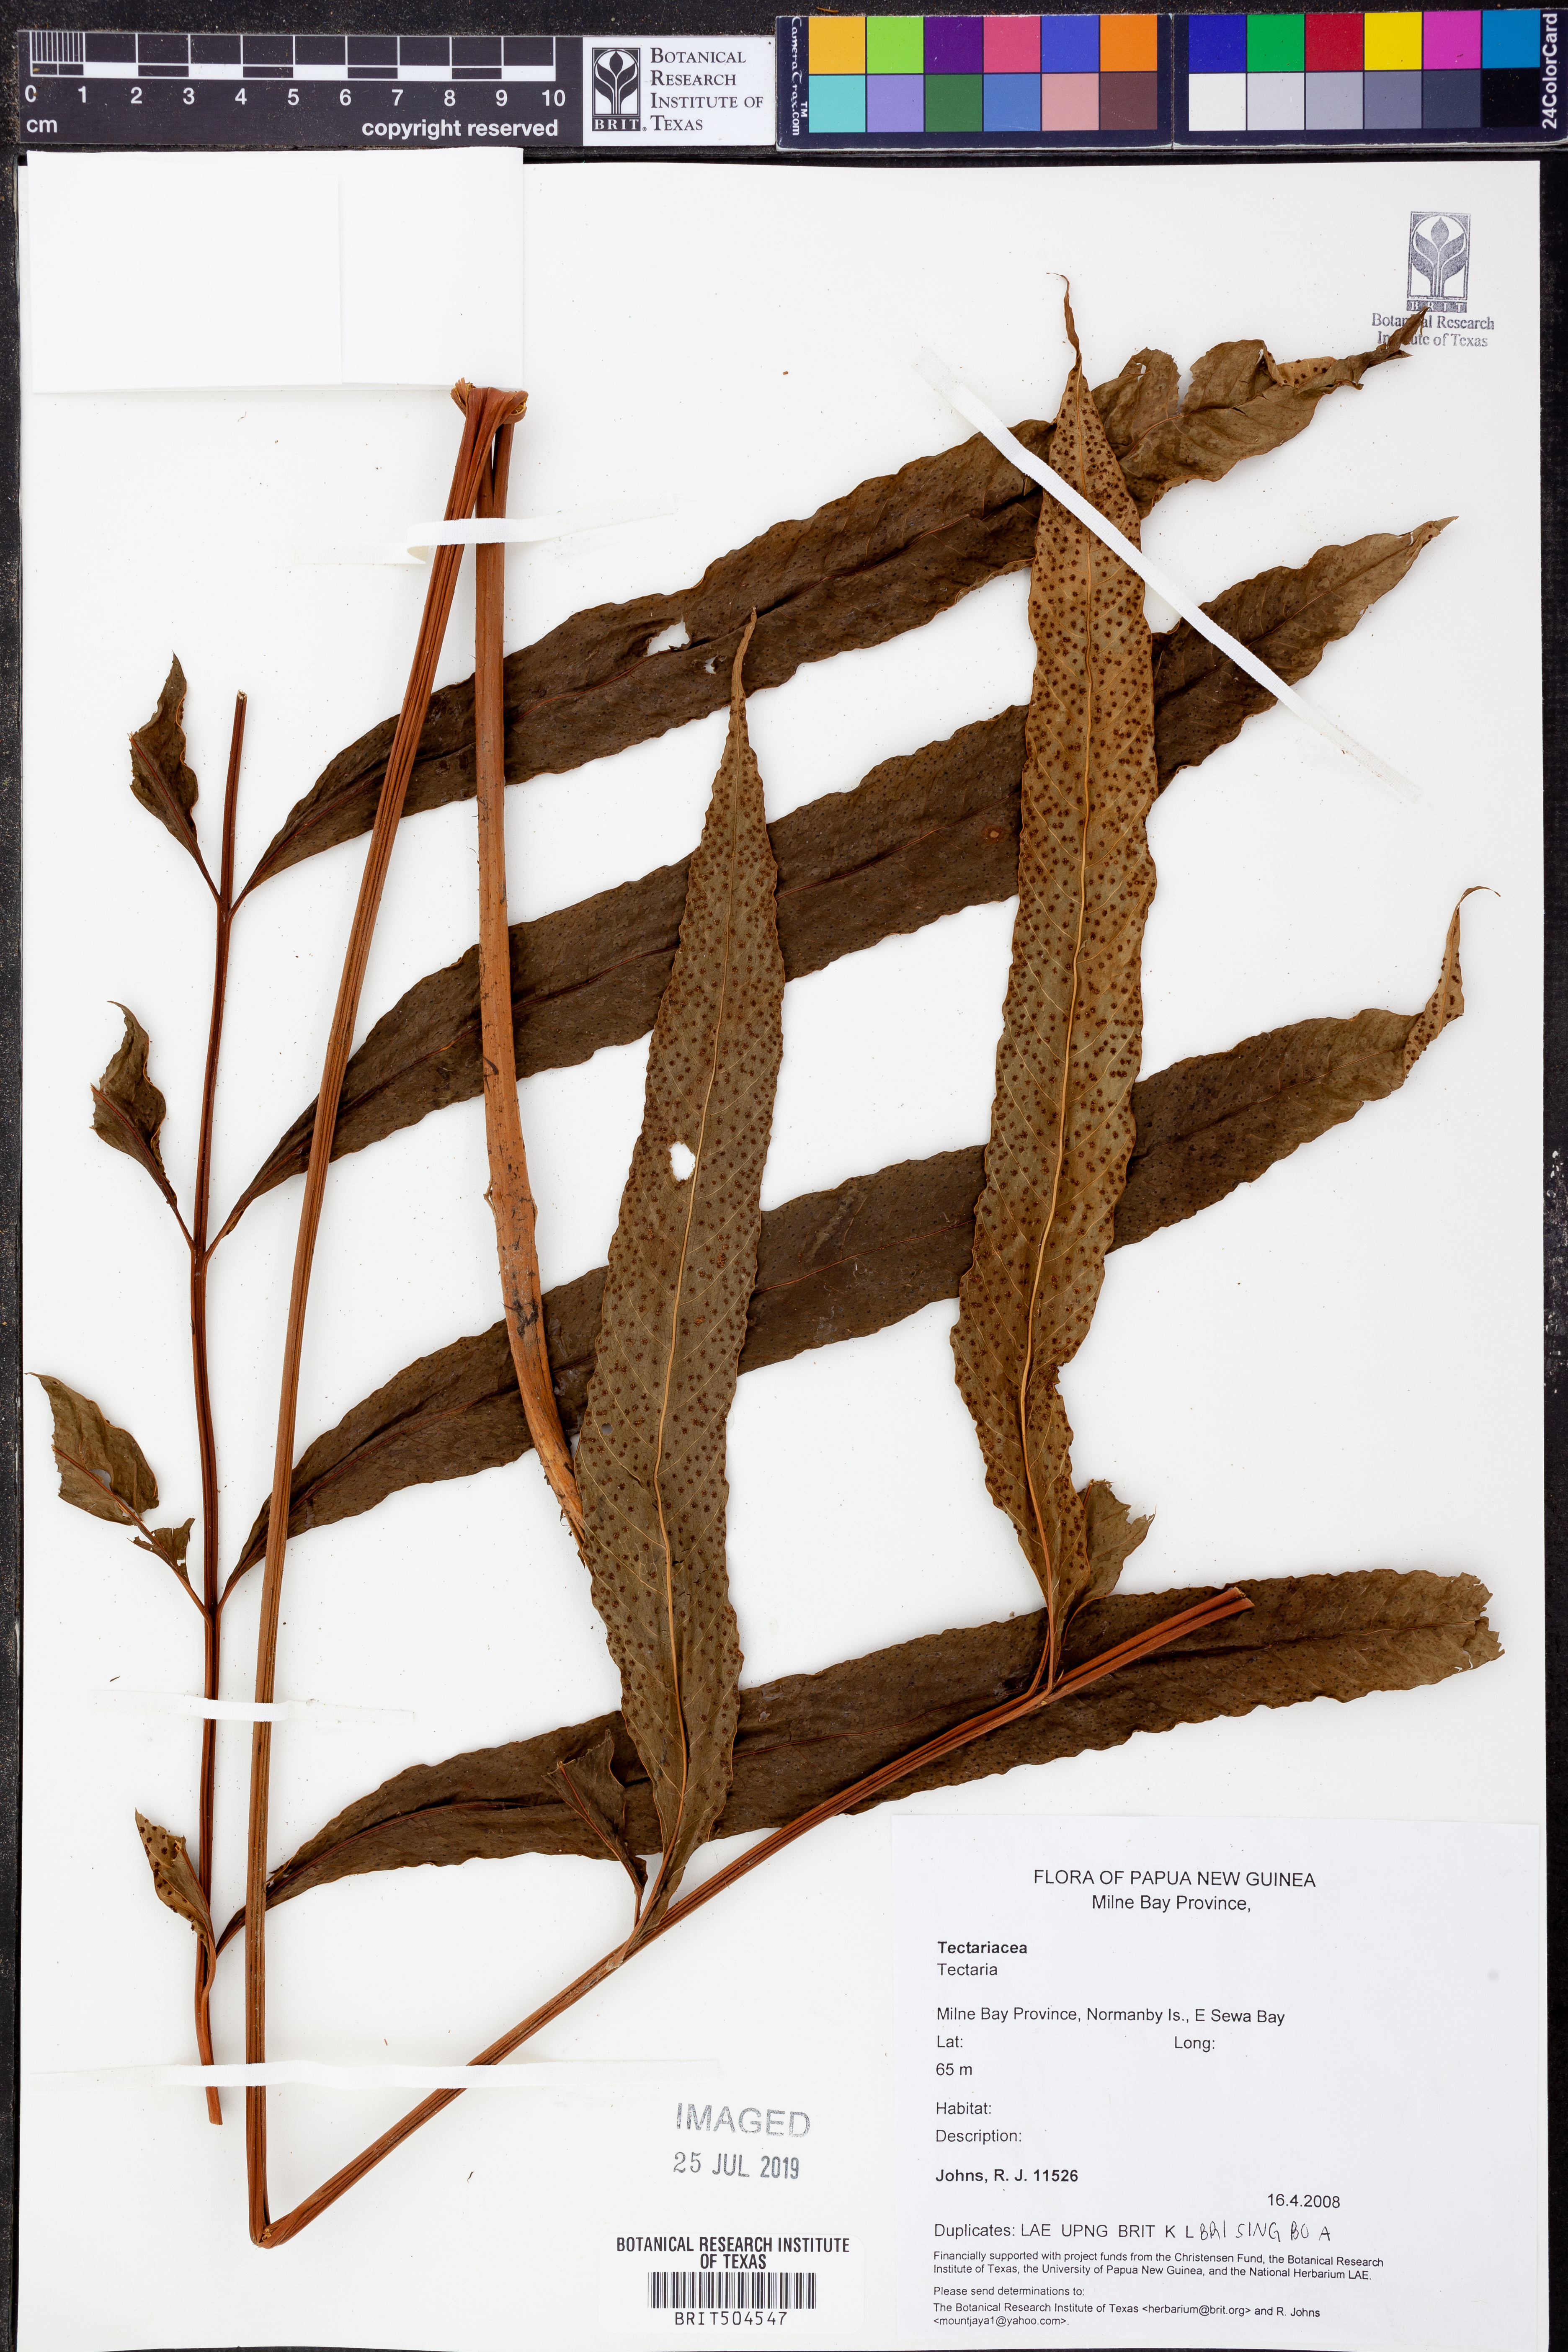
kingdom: Plantae
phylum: Tracheophyta
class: Polypodiopsida
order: Polypodiales
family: Tectariaceae
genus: Tectaria
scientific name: Tectaria
